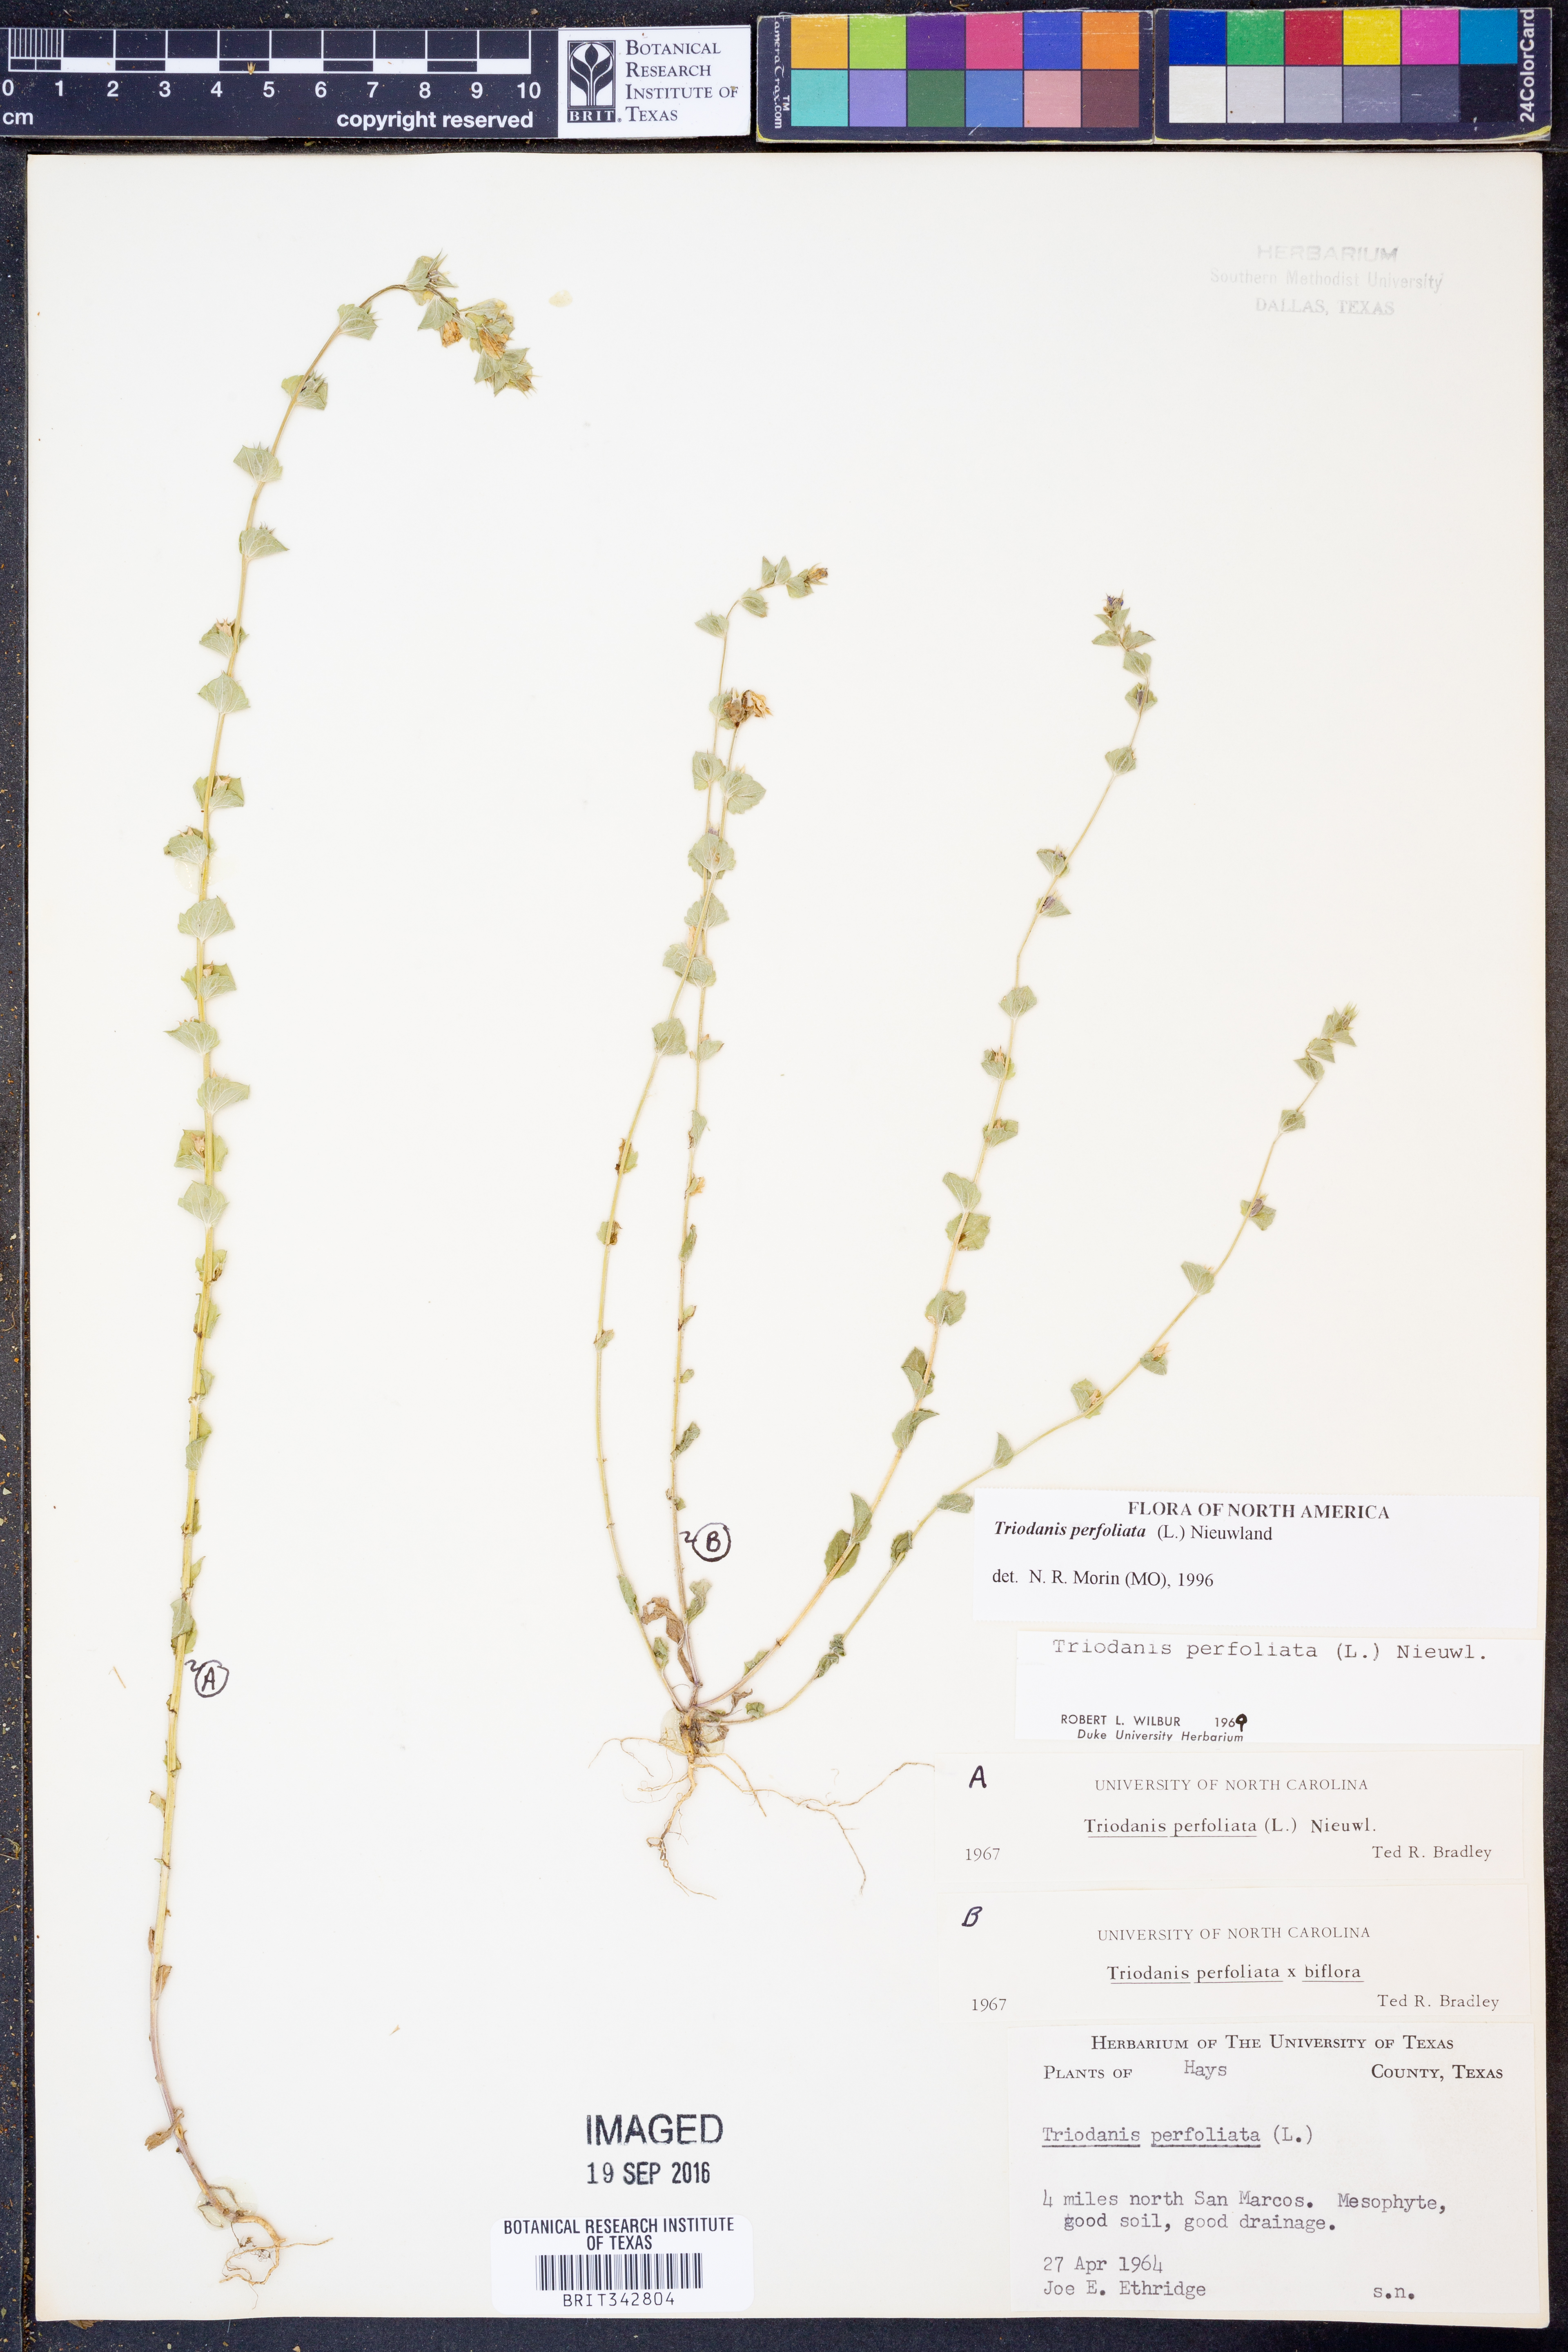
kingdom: Plantae
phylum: Tracheophyta
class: Magnoliopsida
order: Asterales
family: Campanulaceae
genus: Triodanis
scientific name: Triodanis perfoliata
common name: Clasping venus' looking-glass
